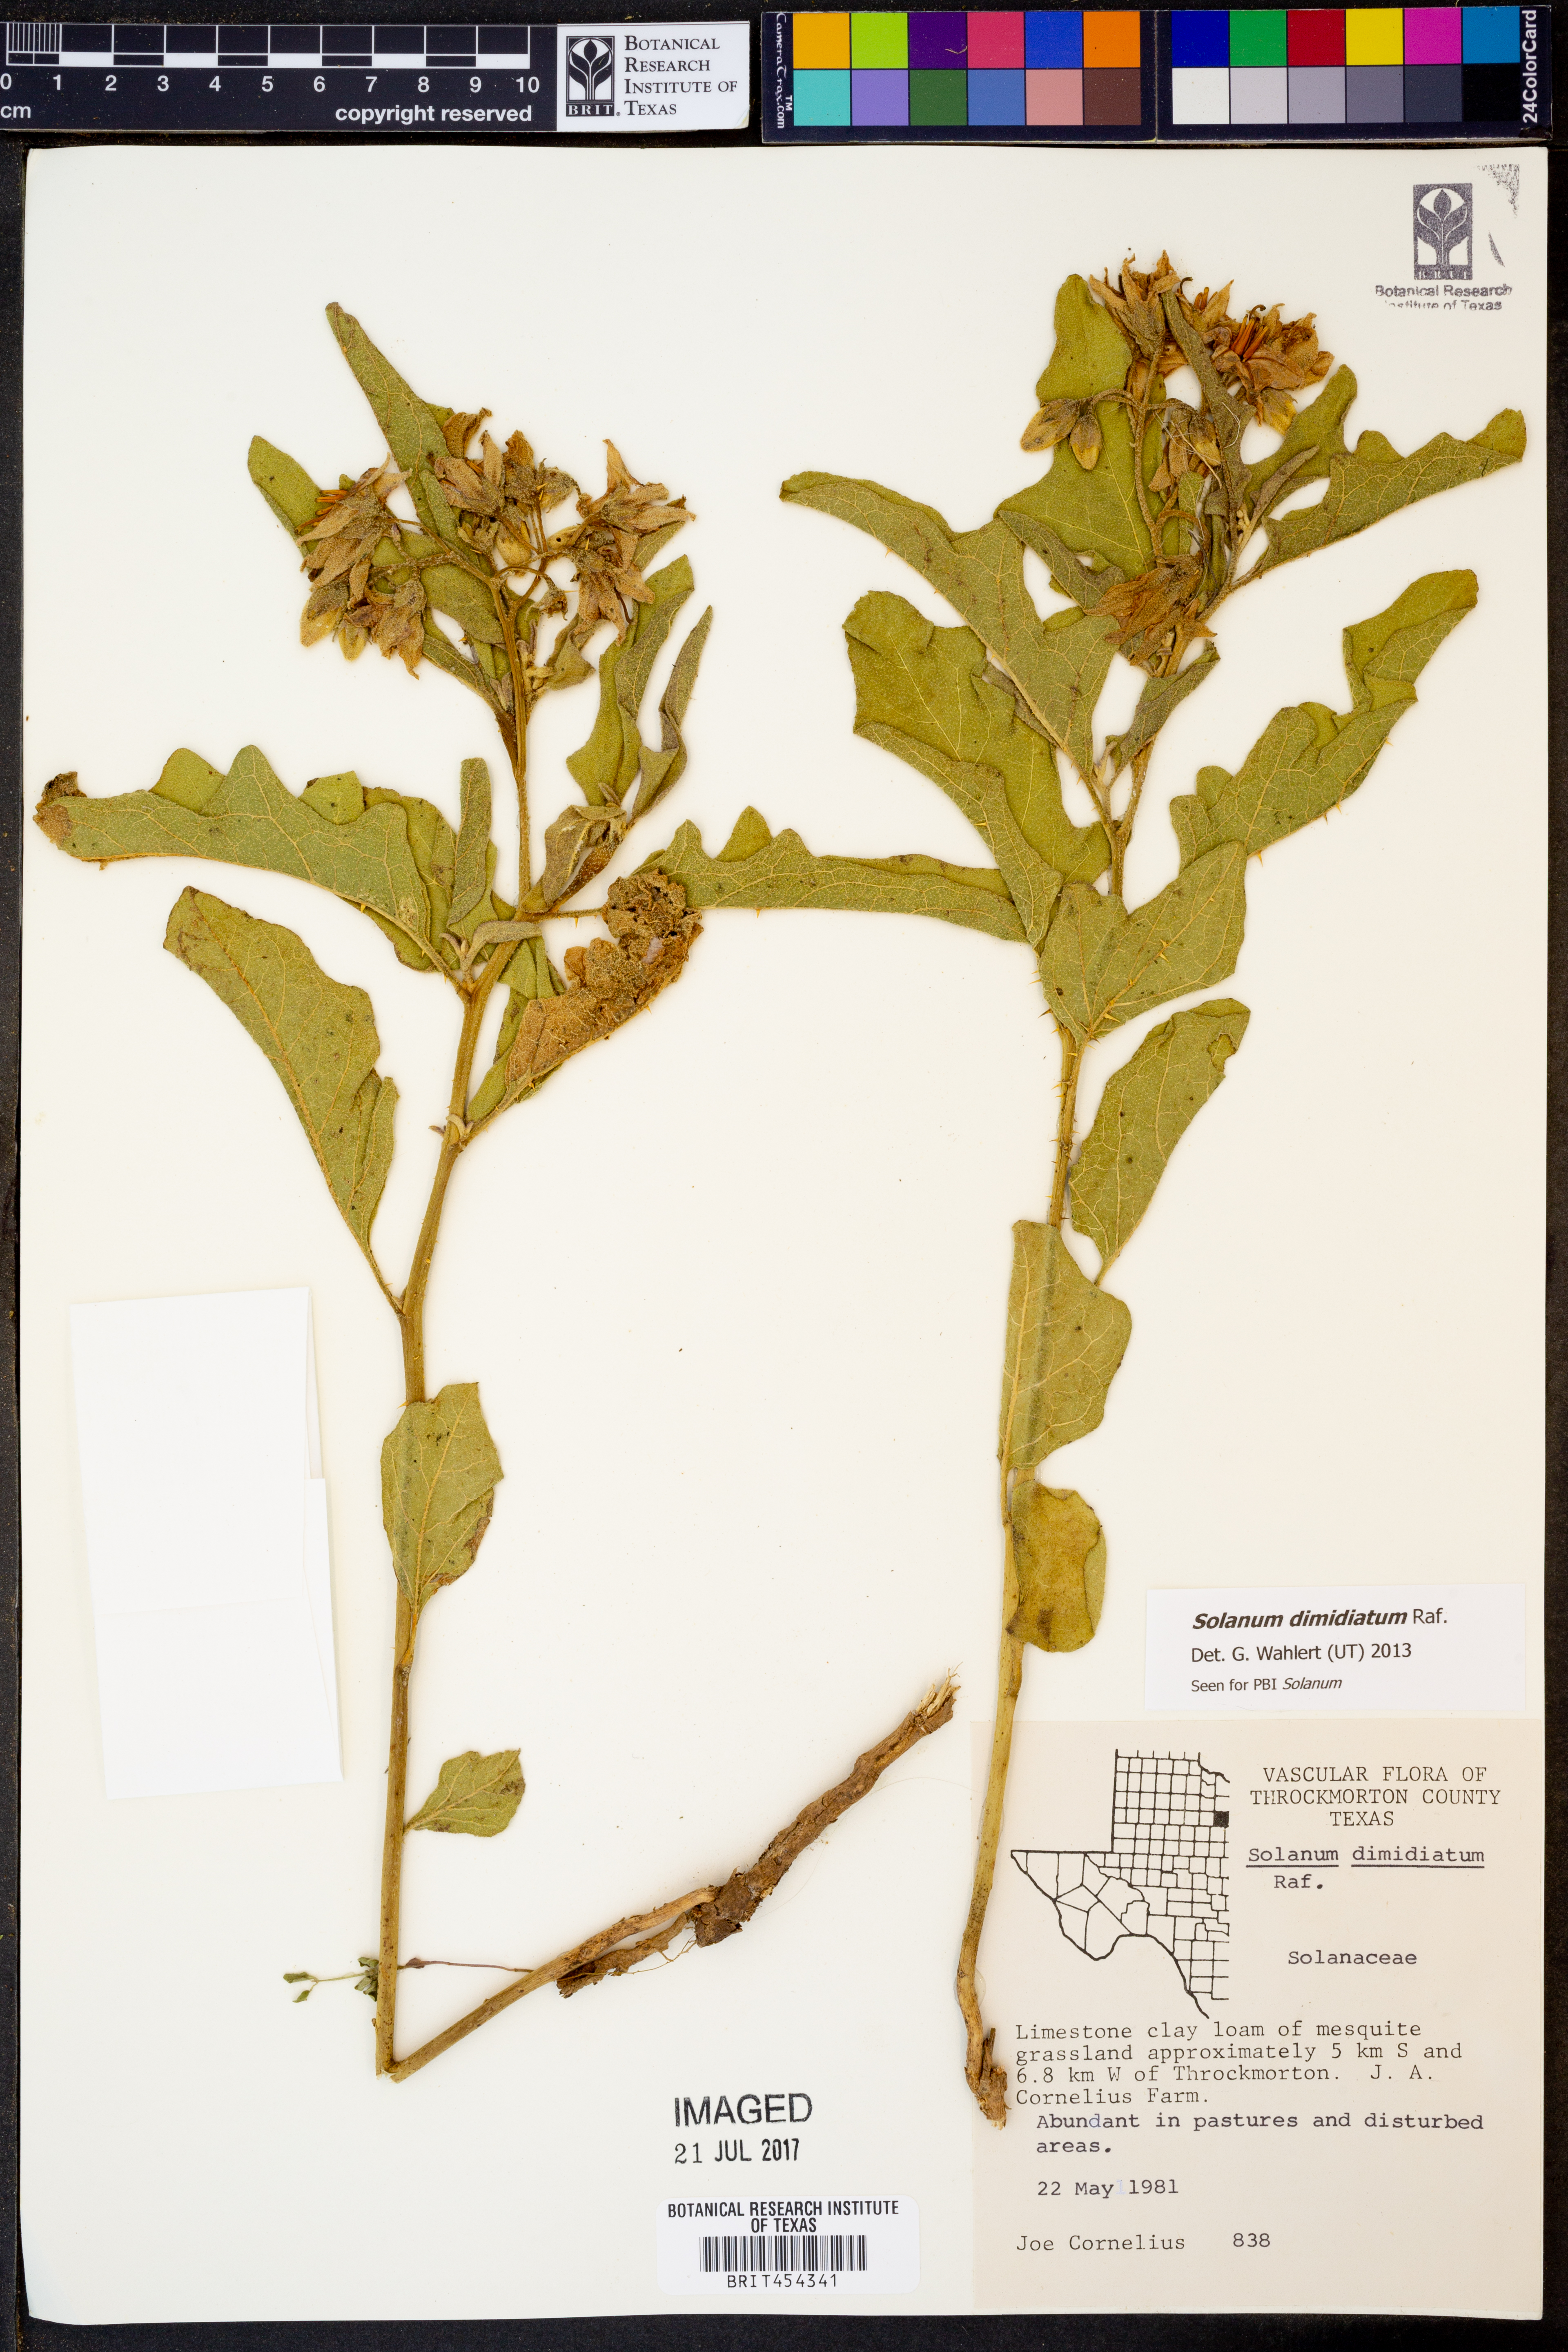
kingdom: Plantae
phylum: Tracheophyta
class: Magnoliopsida
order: Solanales
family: Solanaceae
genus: Solanum
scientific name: Solanum dimidiatum
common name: Carolina horse-nettle
